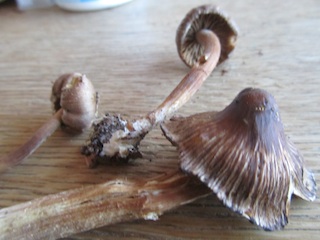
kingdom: Fungi
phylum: Basidiomycota
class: Agaricomycetes
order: Agaricales
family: Inocybaceae
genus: Inocybe
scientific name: Inocybe asterospora
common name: stjernesporet trævlhat
